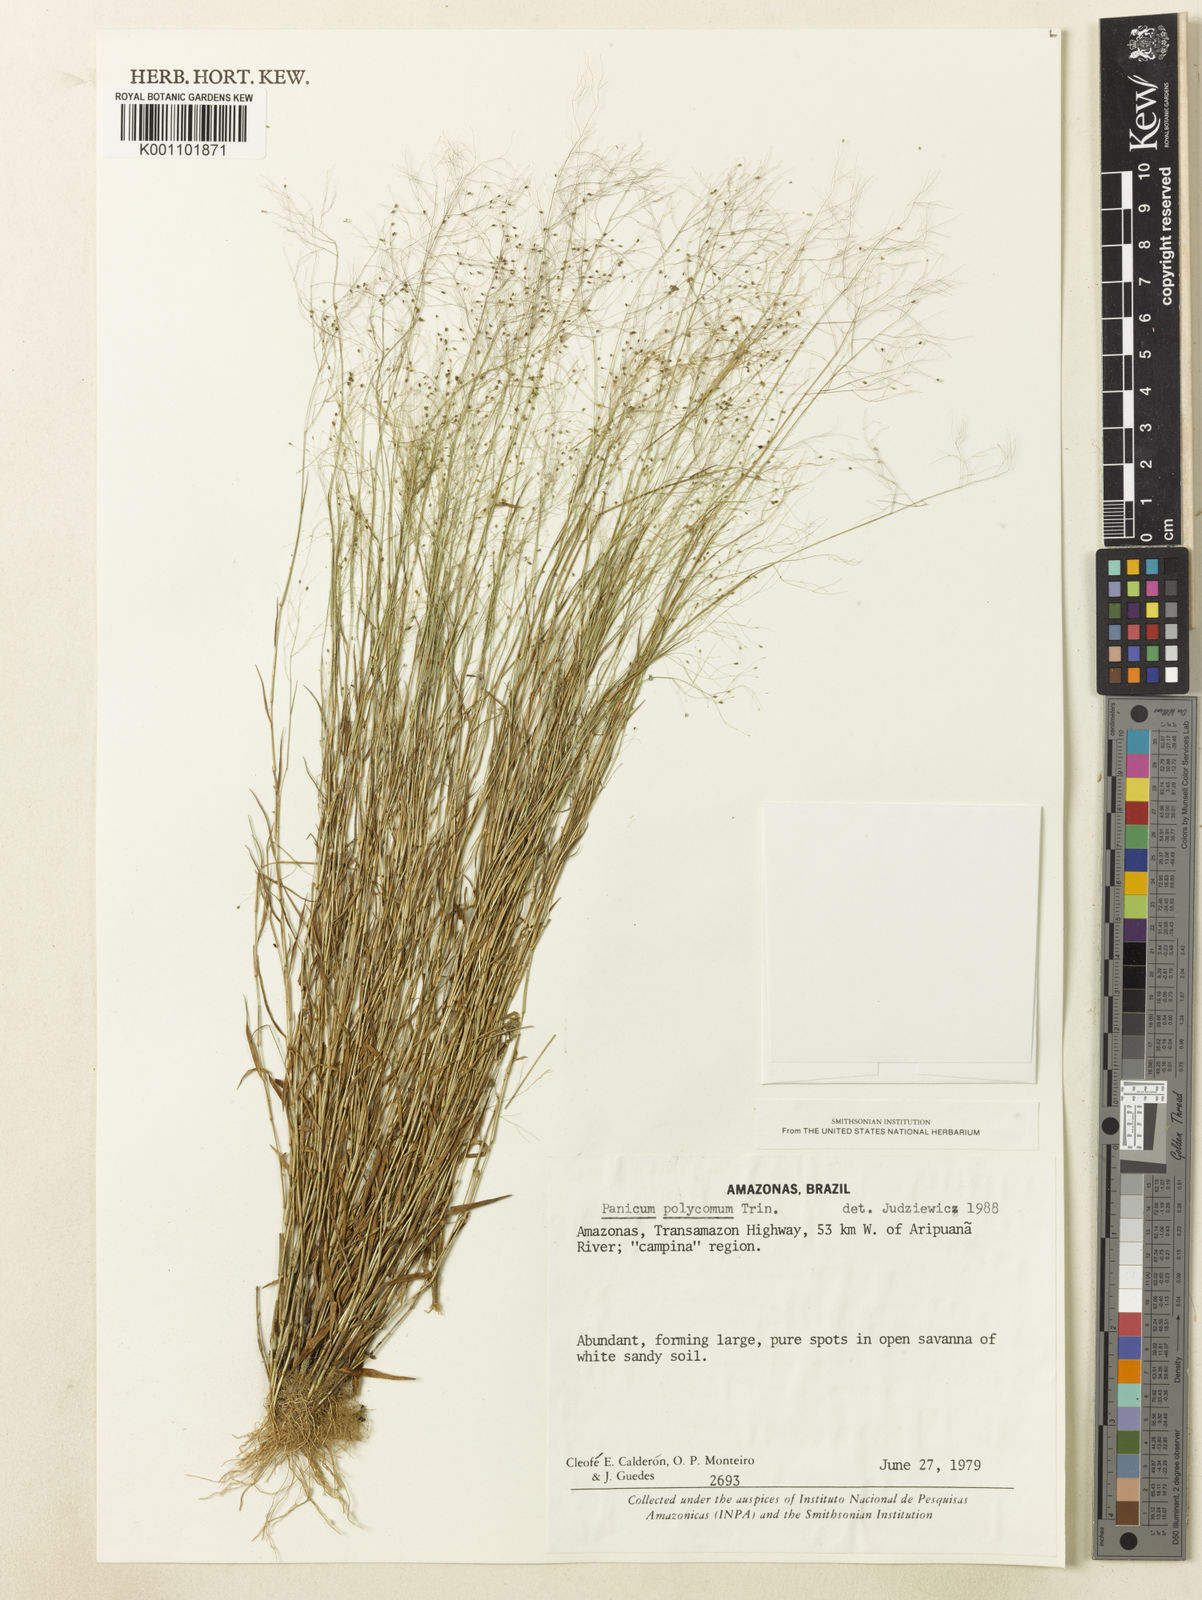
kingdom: Plantae
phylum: Tracheophyta
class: Liliopsida
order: Poales
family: Poaceae
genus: Trichanthecium
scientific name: Trichanthecium polycomum
